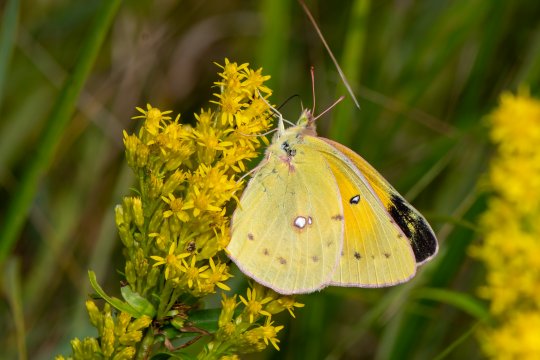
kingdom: Animalia
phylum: Arthropoda
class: Insecta
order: Lepidoptera
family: Pieridae
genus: Colias
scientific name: Colias eurytheme
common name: Orange Sulphur
